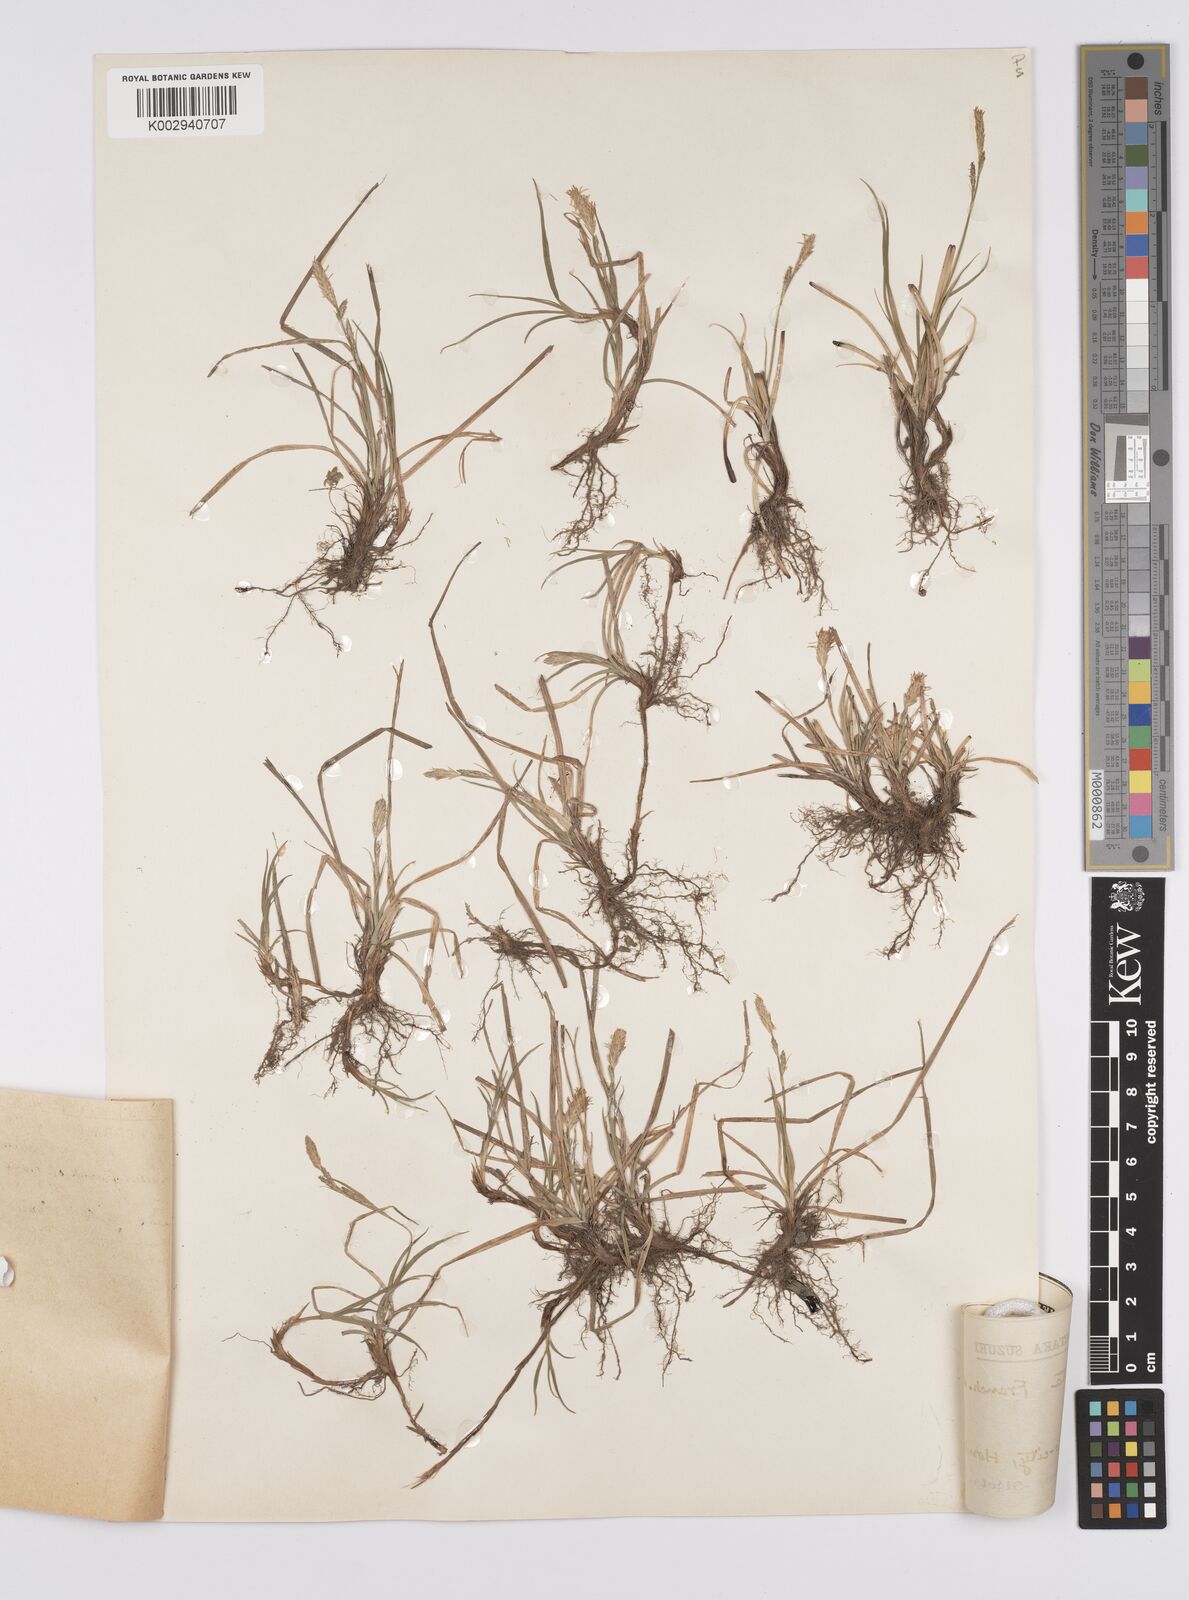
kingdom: Plantae
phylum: Tracheophyta
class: Liliopsida
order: Poales
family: Cyperaceae
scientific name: Cyperaceae
